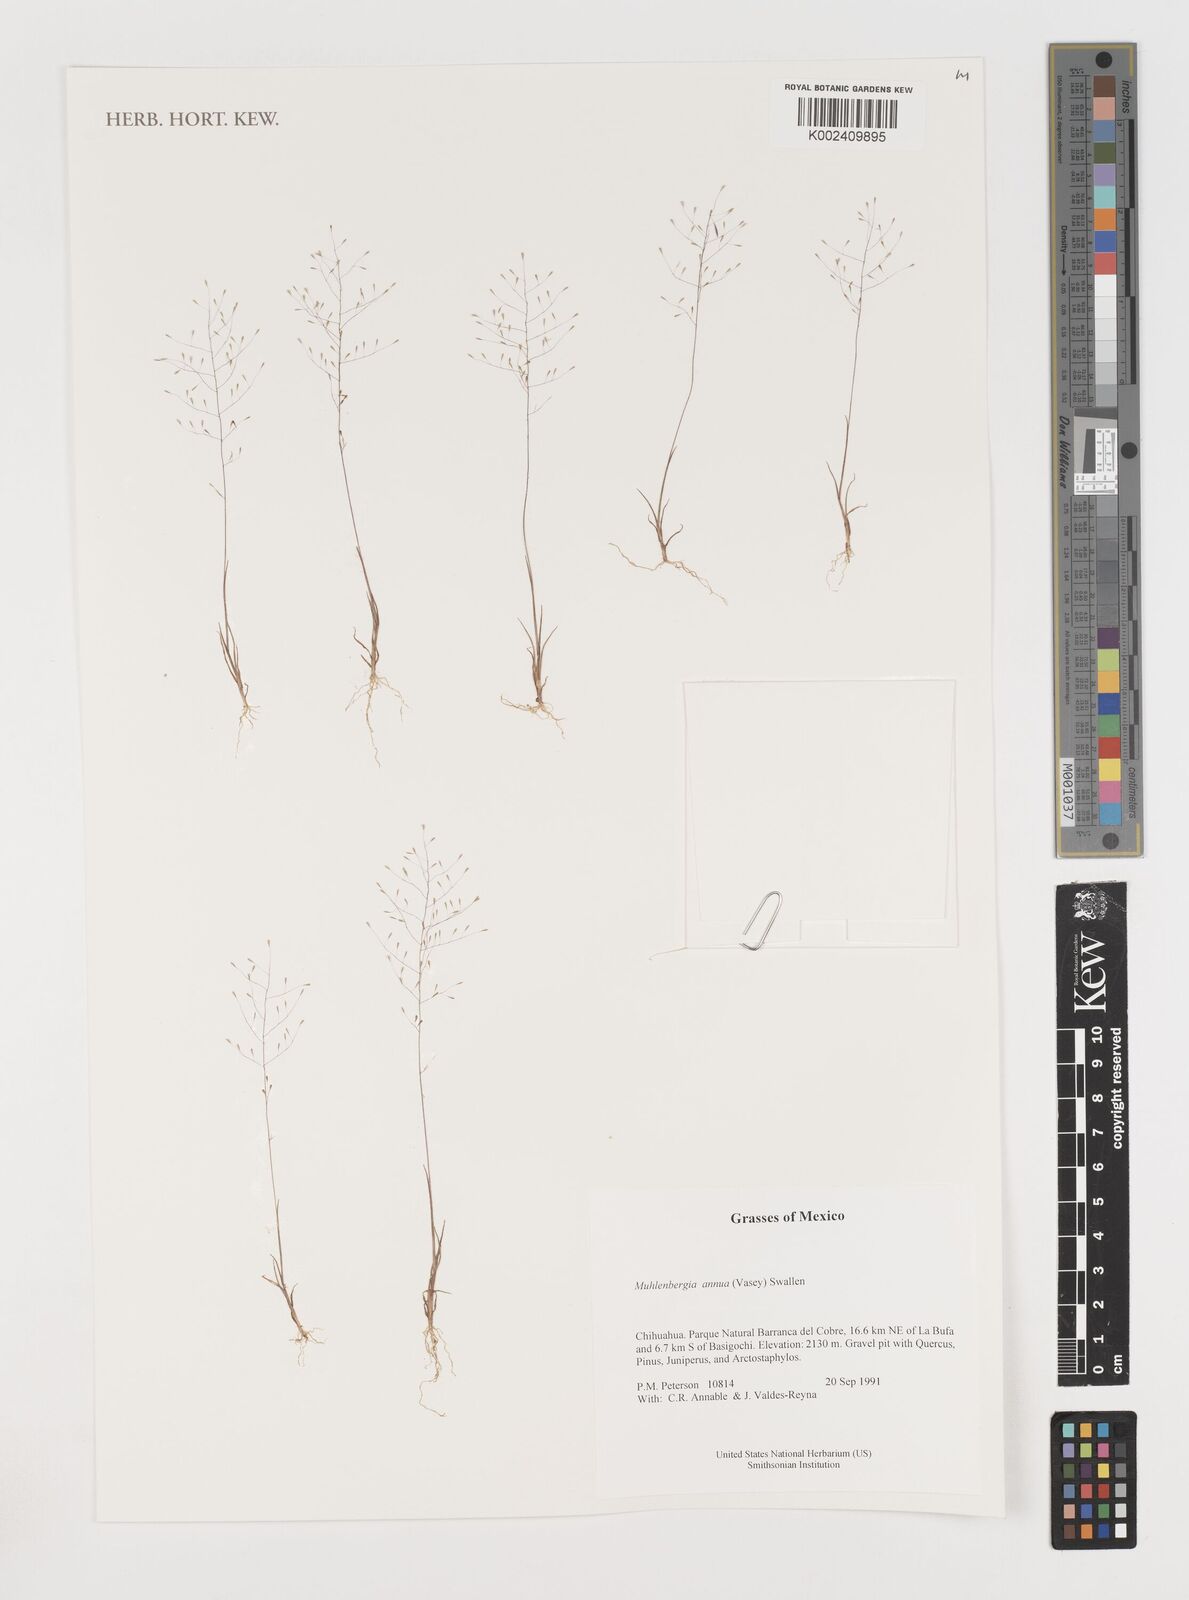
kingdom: Plantae
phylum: Tracheophyta
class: Liliopsida
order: Poales
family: Poaceae
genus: Muhlenbergia
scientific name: Muhlenbergia annua
